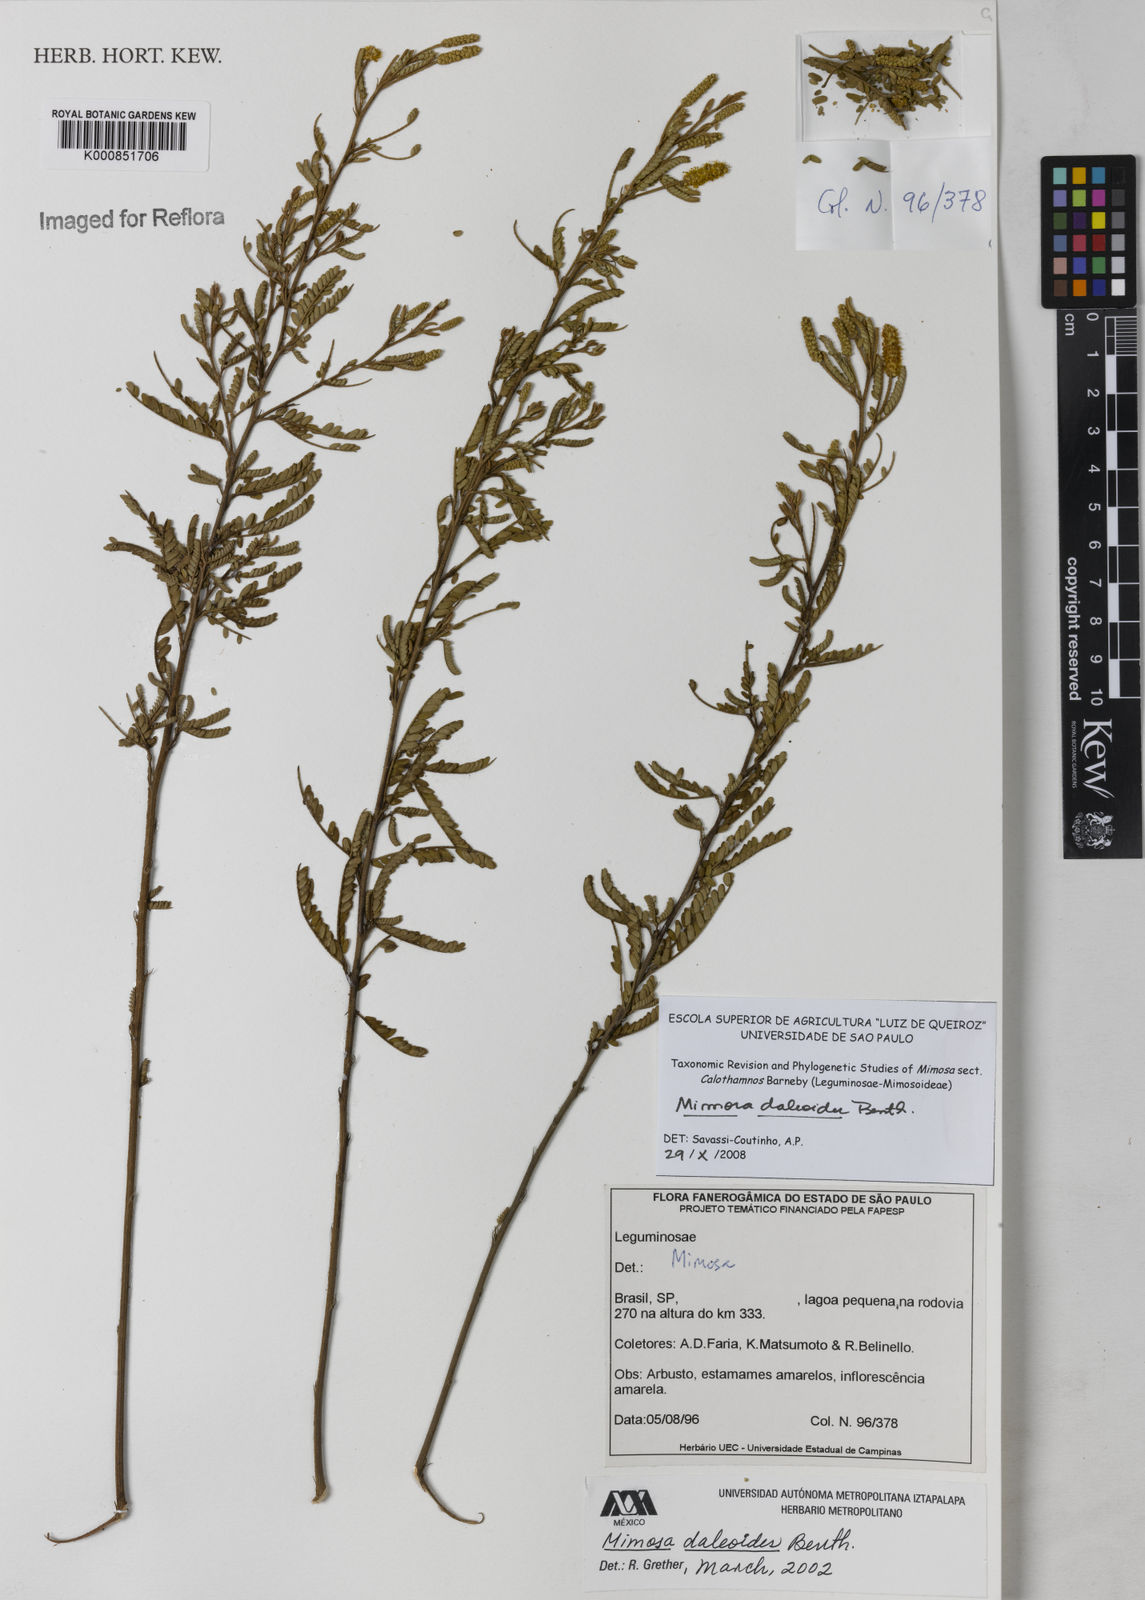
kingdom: Plantae
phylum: Tracheophyta
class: Magnoliopsida
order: Fabales
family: Fabaceae
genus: Mimosa
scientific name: Mimosa daleoides
